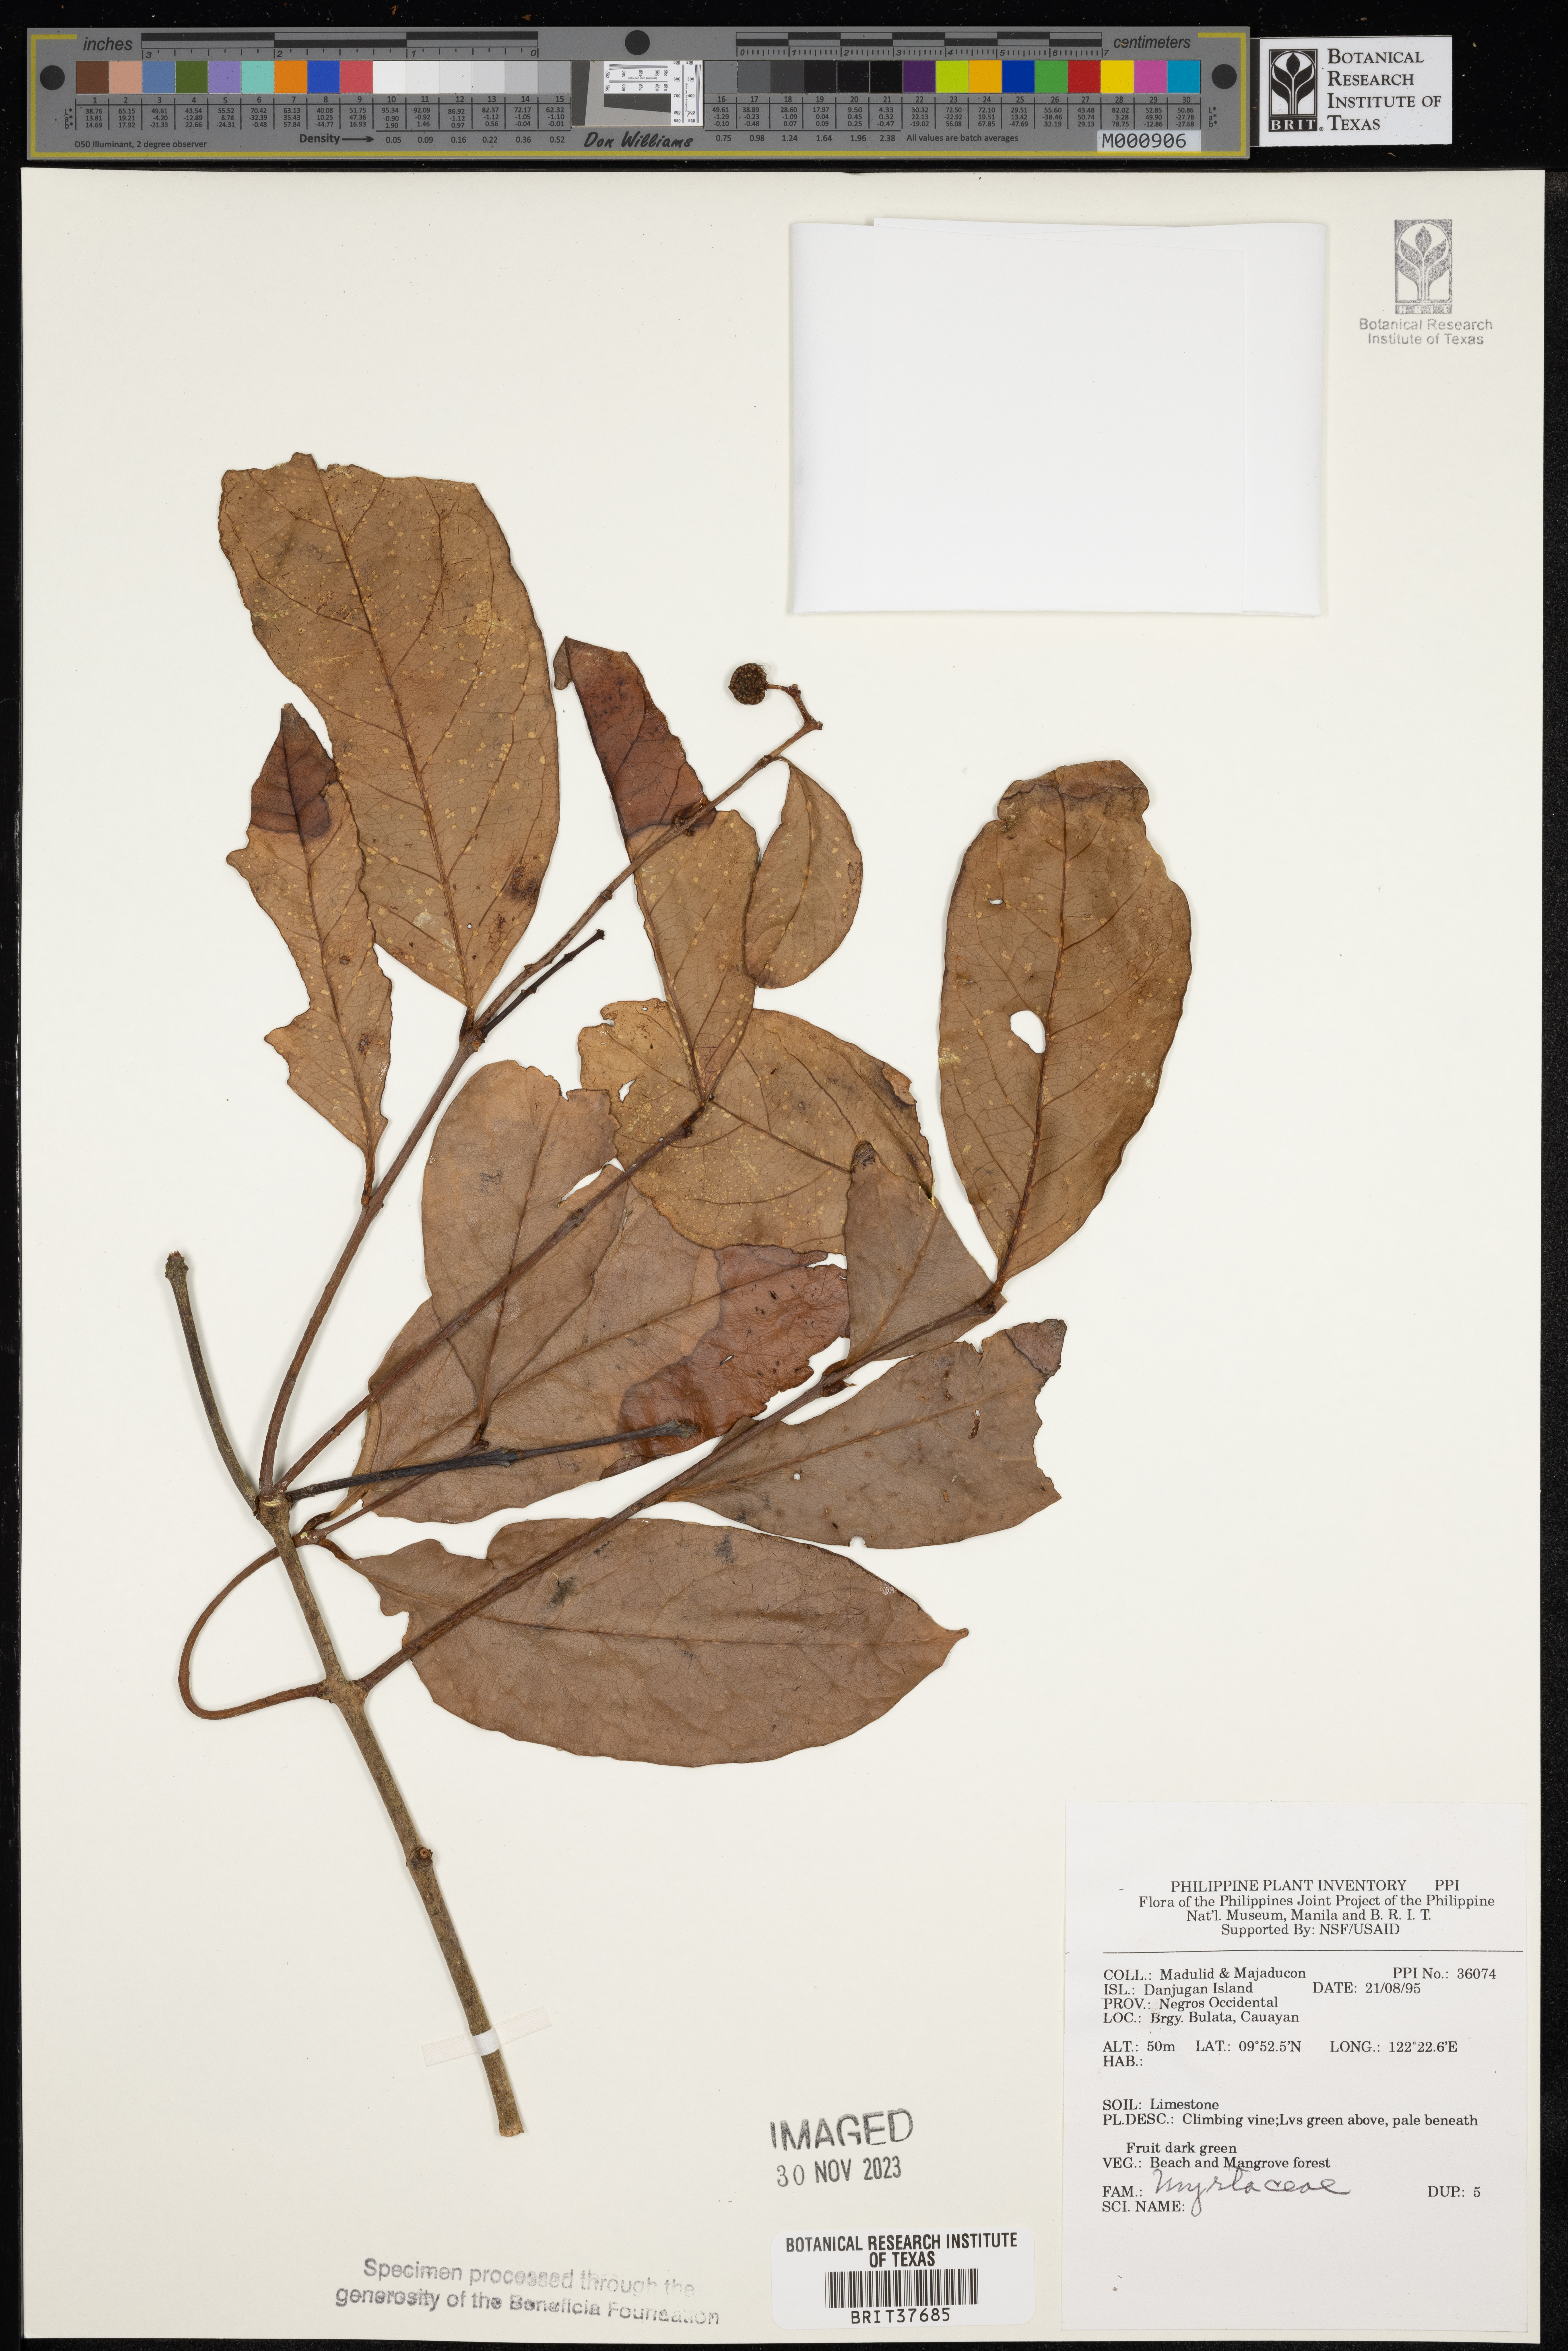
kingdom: Plantae
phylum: Tracheophyta
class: Magnoliopsida
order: Myrtales
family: Myrtaceae
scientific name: Myrtaceae
